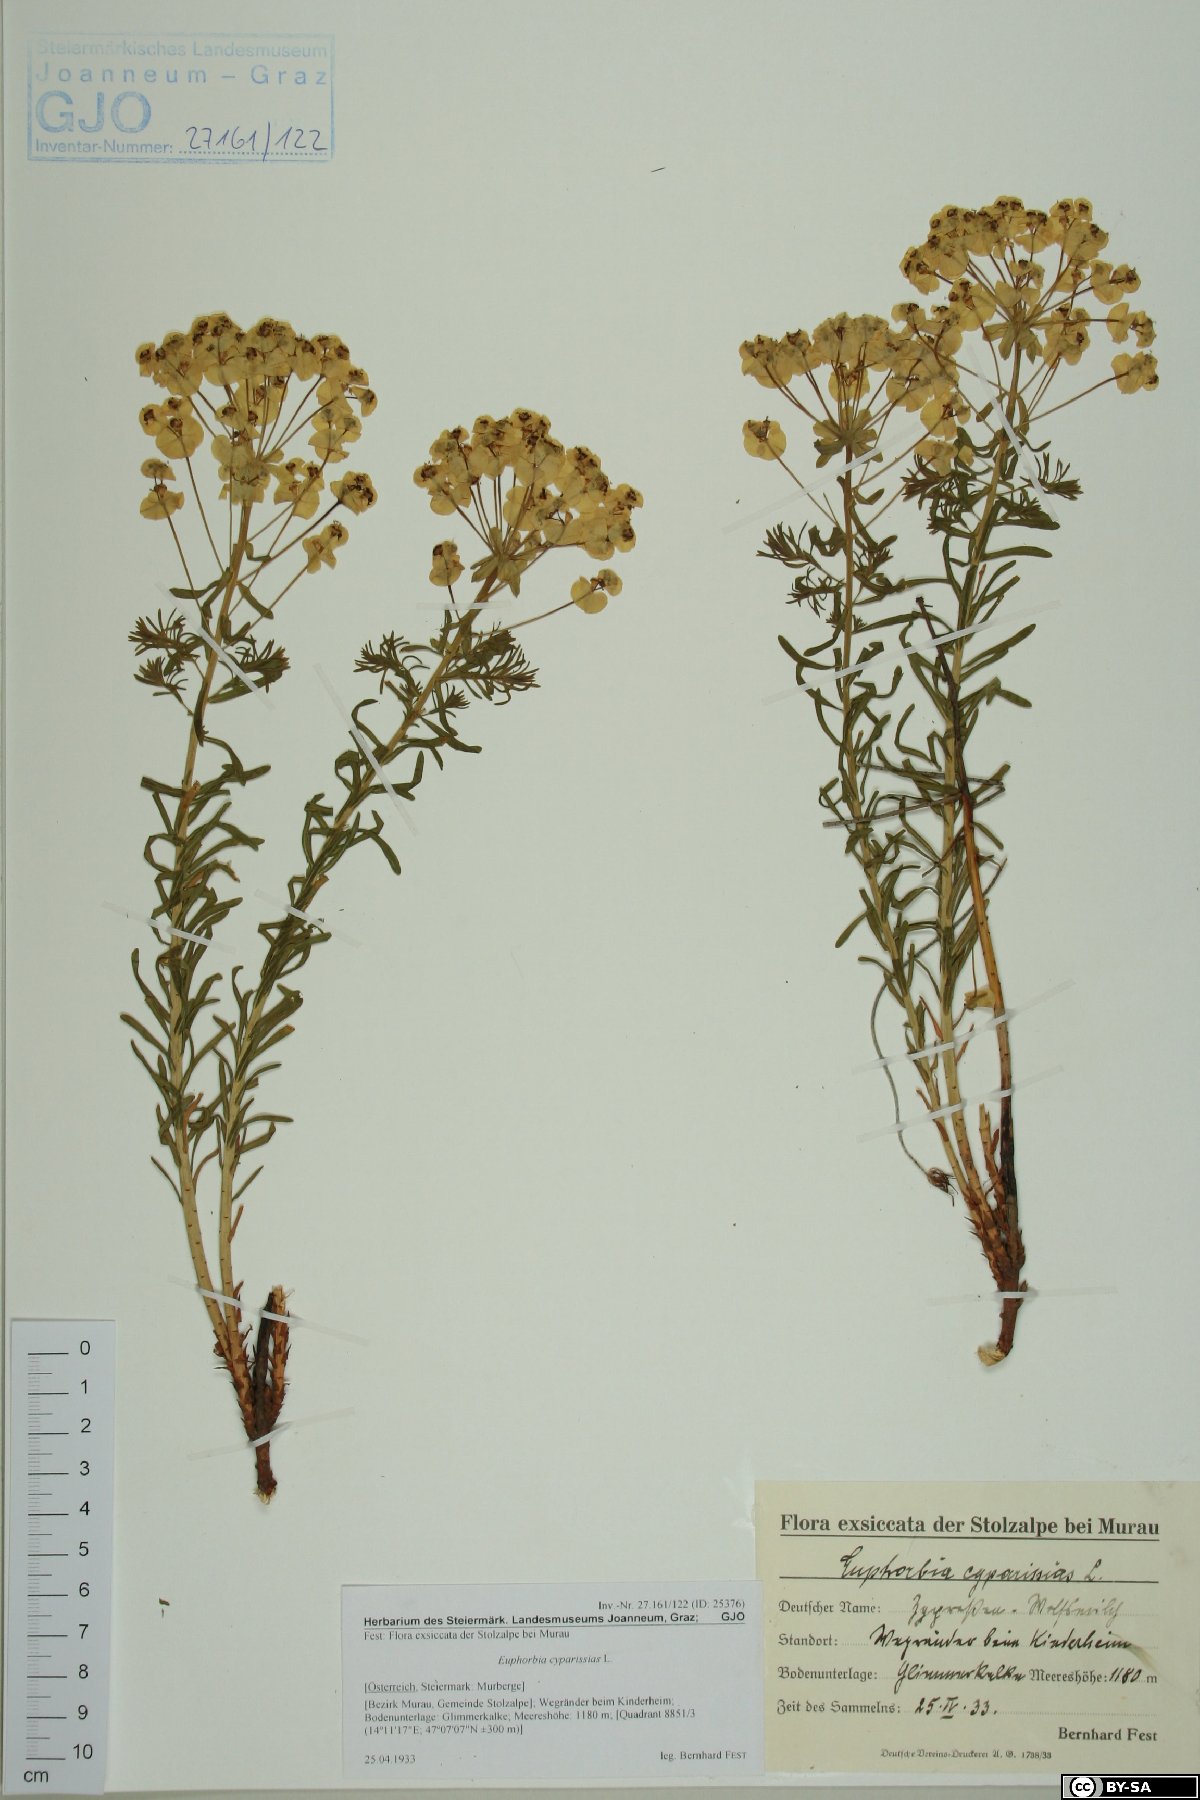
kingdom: Plantae
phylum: Tracheophyta
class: Magnoliopsida
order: Malpighiales
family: Euphorbiaceae
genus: Euphorbia
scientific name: Euphorbia cyparissias
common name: Cypress spurge
